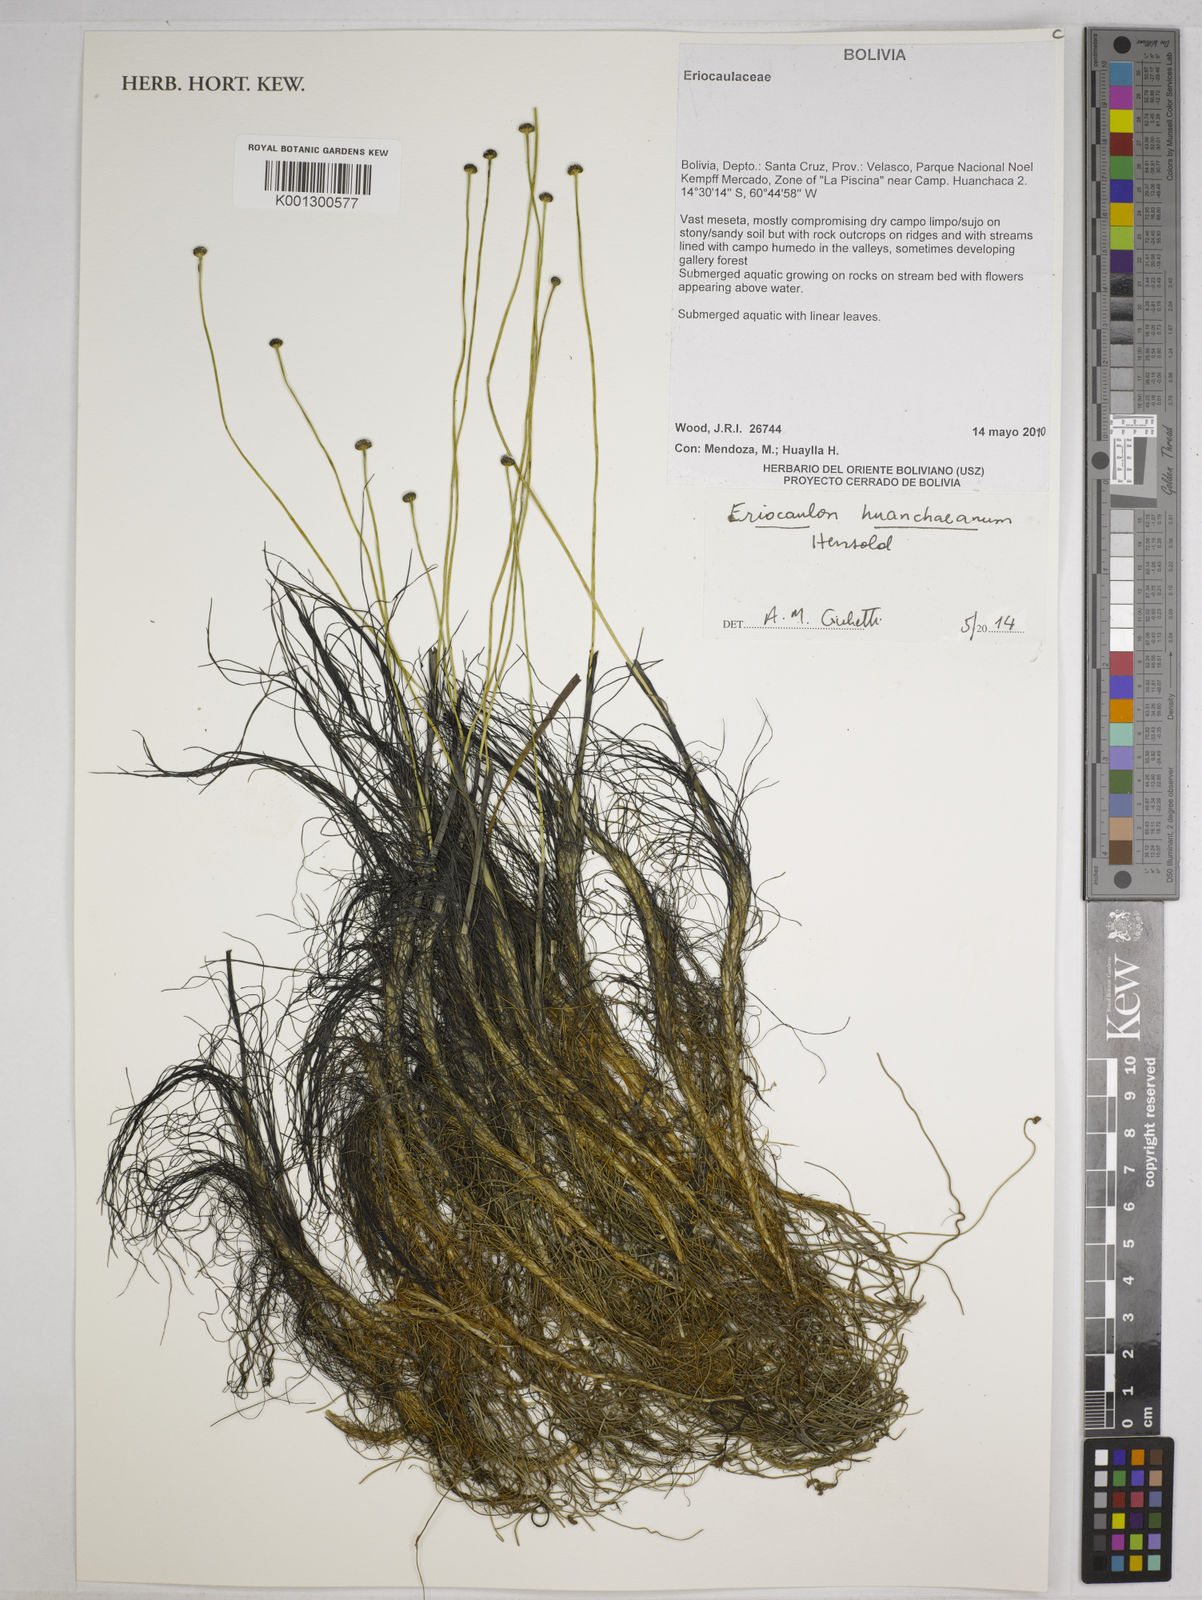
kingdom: Plantae
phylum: Tracheophyta
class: Liliopsida
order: Poales
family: Eriocaulaceae
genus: Eriocaulon
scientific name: Eriocaulon huanchacanum
